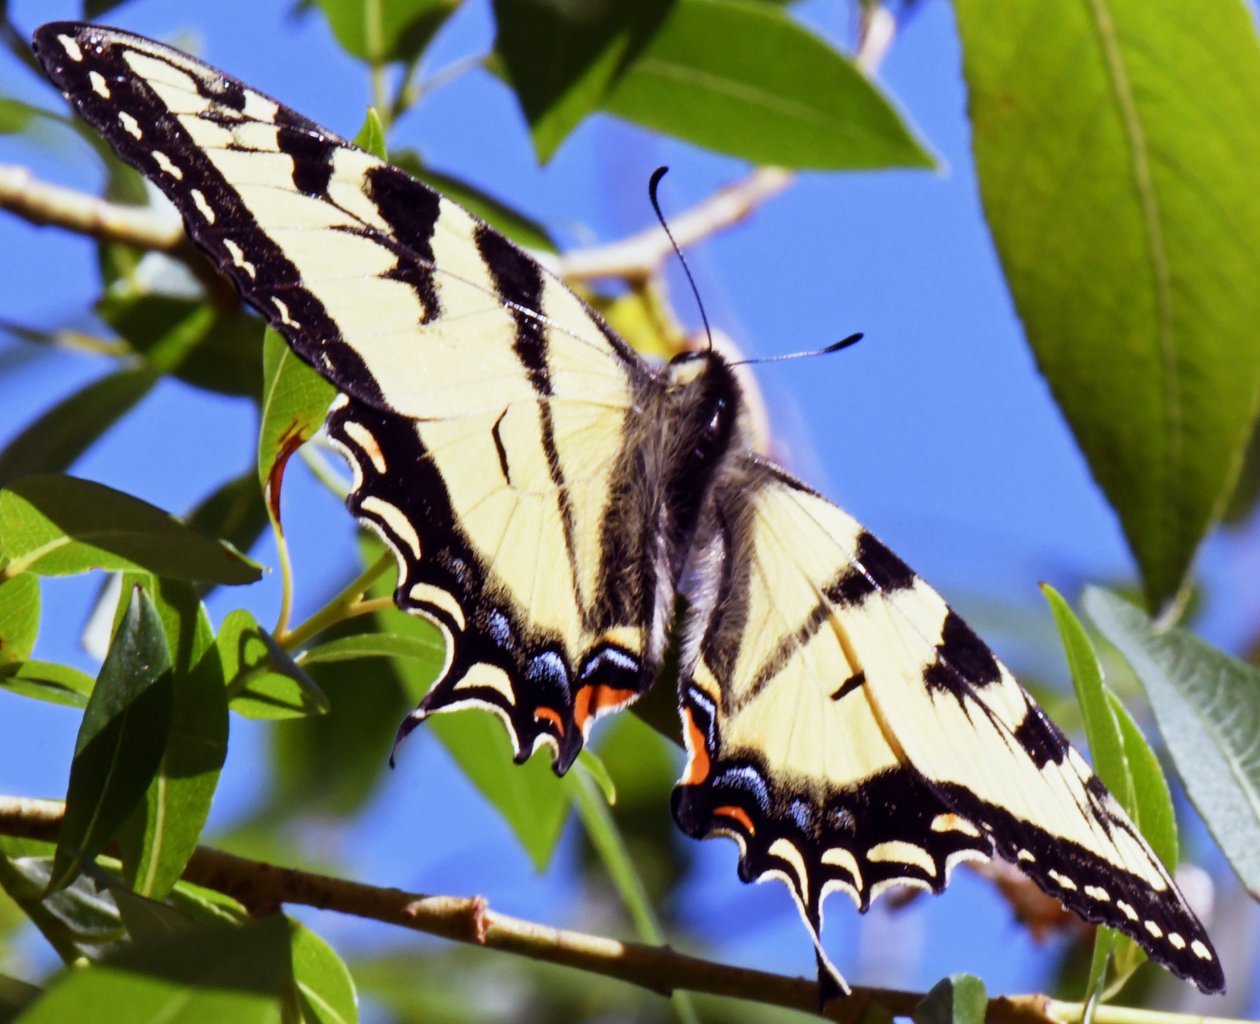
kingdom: Animalia
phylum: Arthropoda
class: Insecta
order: Lepidoptera
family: Papilionidae
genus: Pterourus
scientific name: Pterourus canadensis
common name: Canadian Tiger Swallowtail
